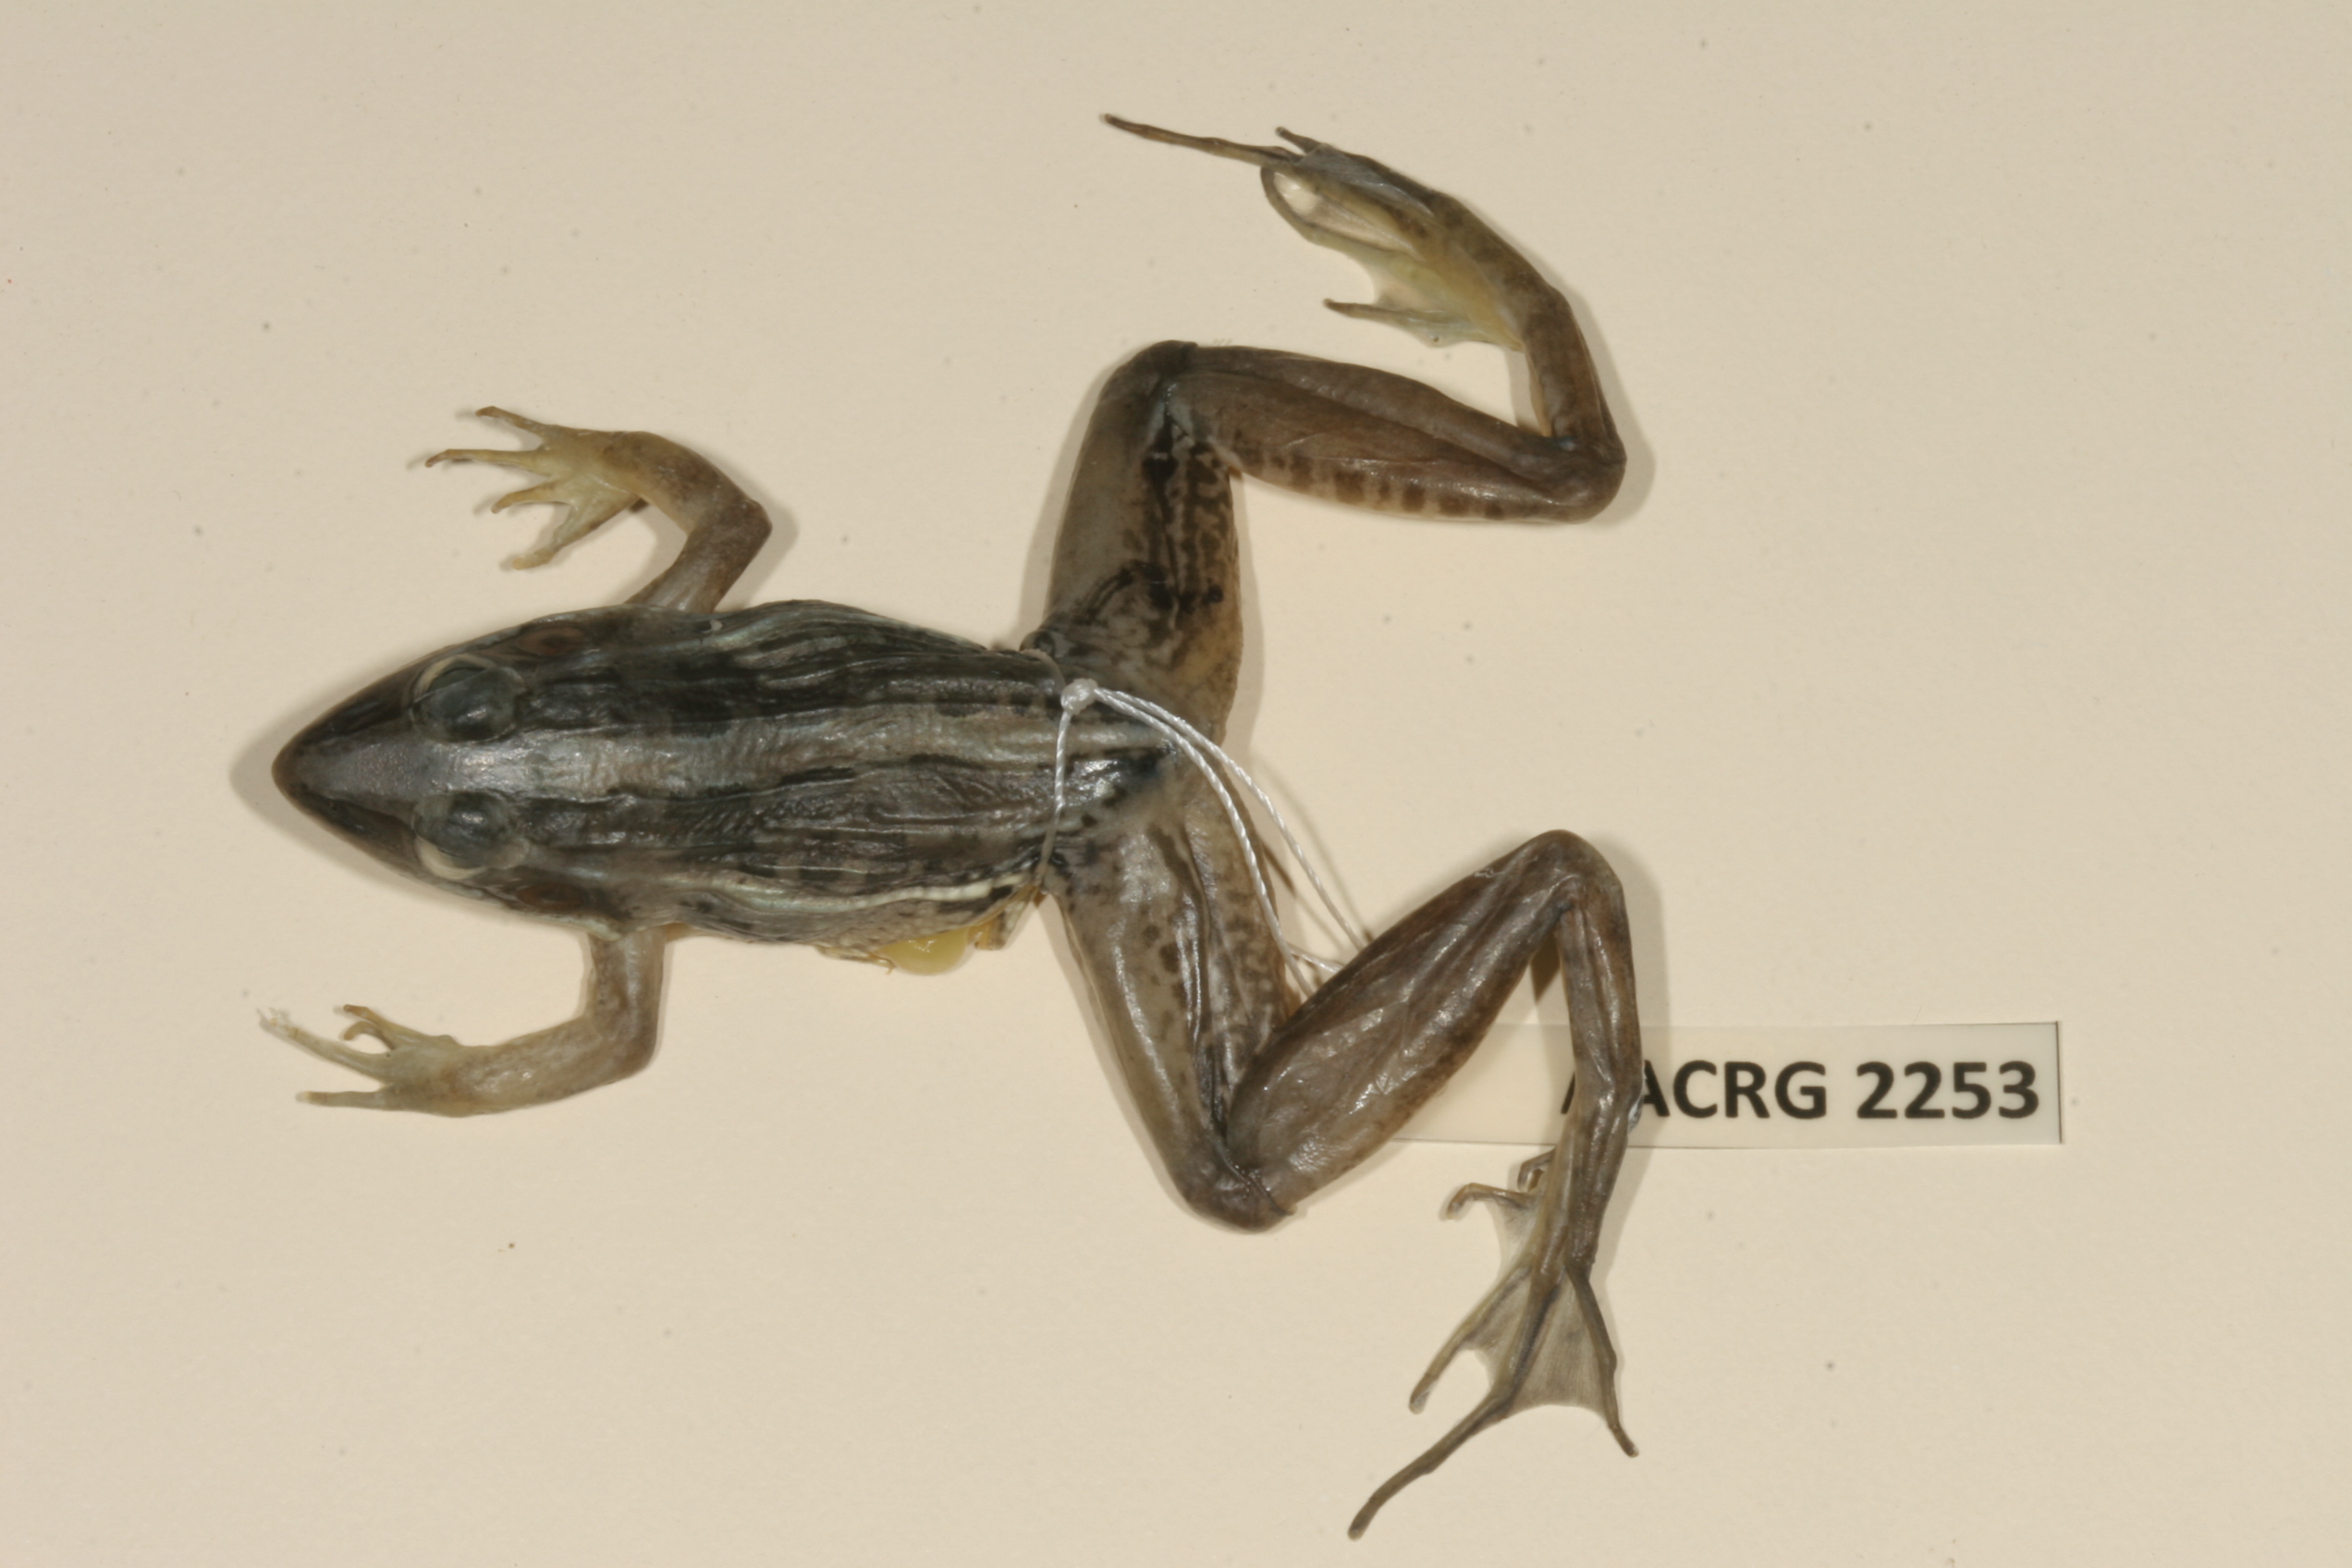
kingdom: Animalia
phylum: Chordata
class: Amphibia
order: Anura
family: Ptychadenidae
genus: Ptychadena
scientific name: Ptychadena mascareniensis
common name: Mascarene grass frog
